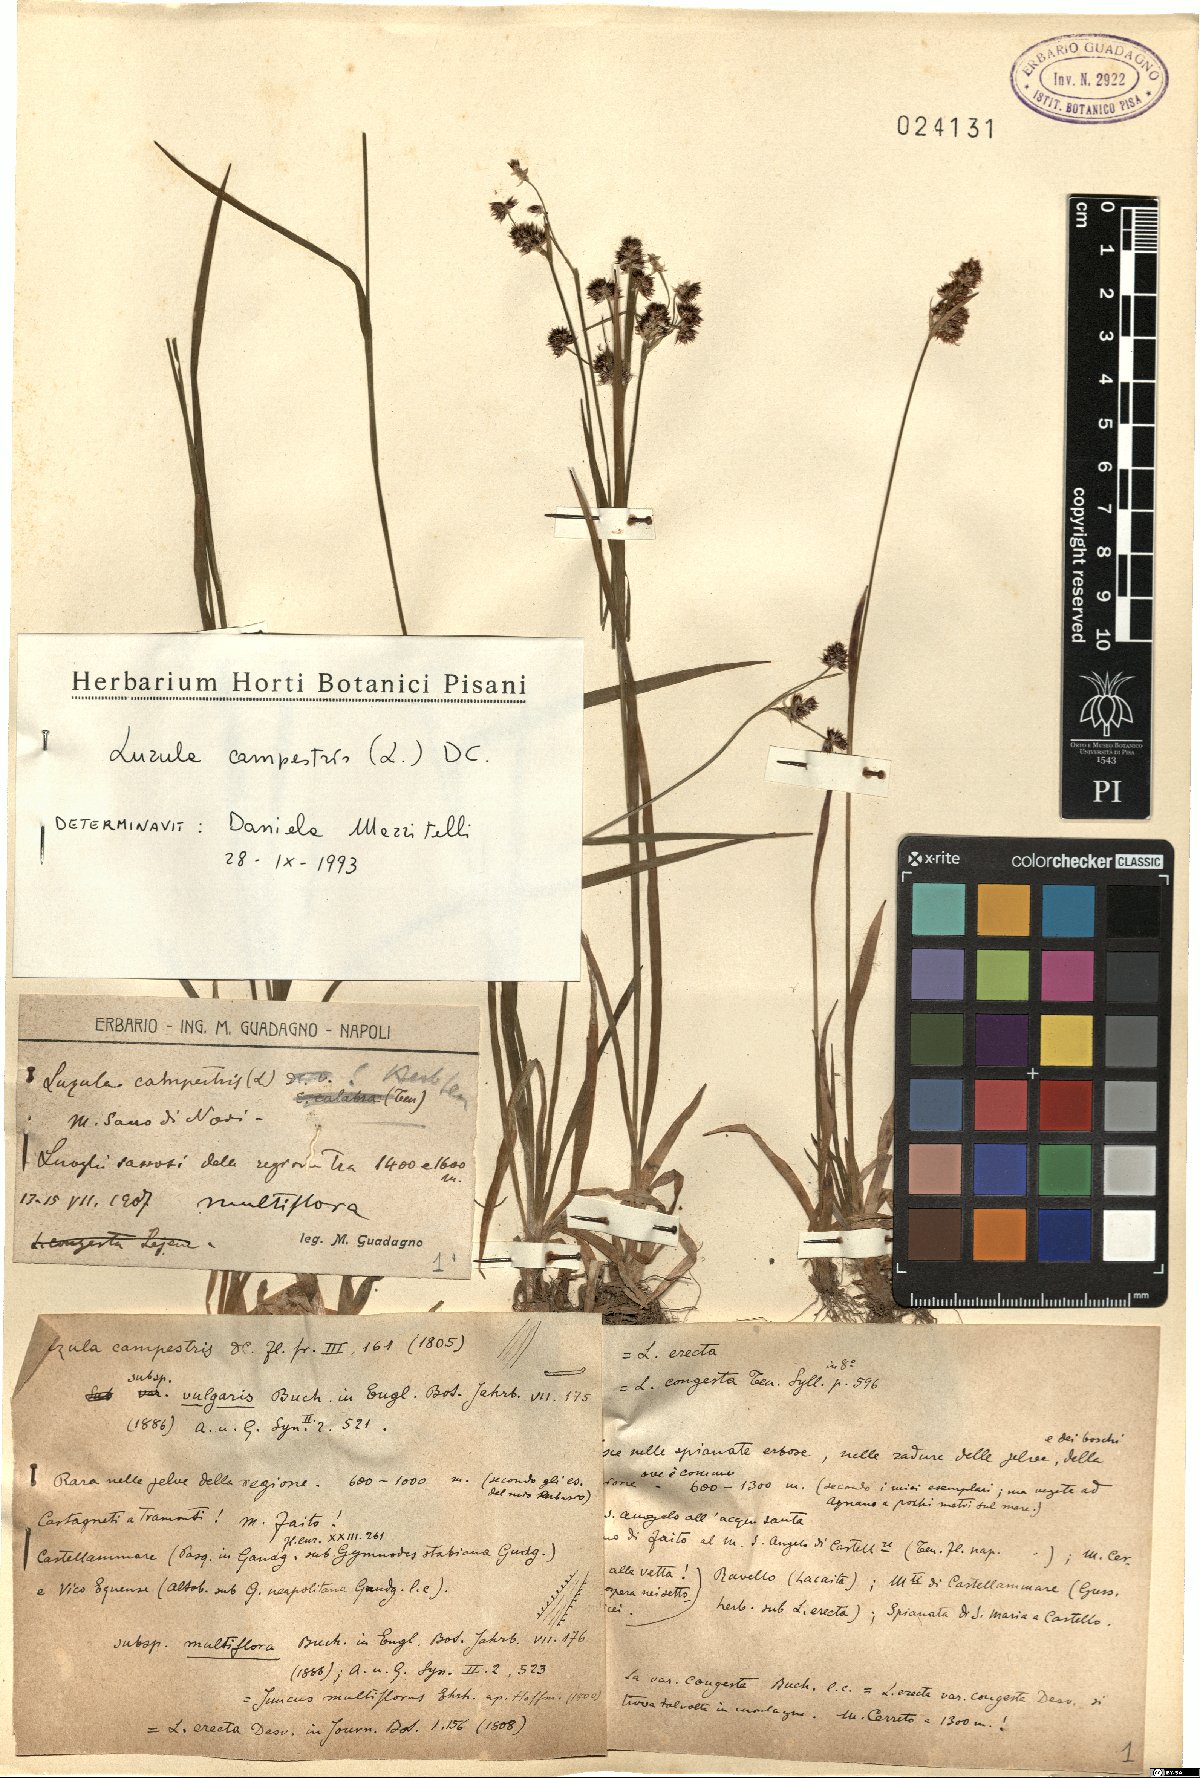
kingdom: Plantae
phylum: Tracheophyta
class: Liliopsida
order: Poales
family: Juncaceae
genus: Luzula
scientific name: Luzula campestris
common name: Field wood-rush
